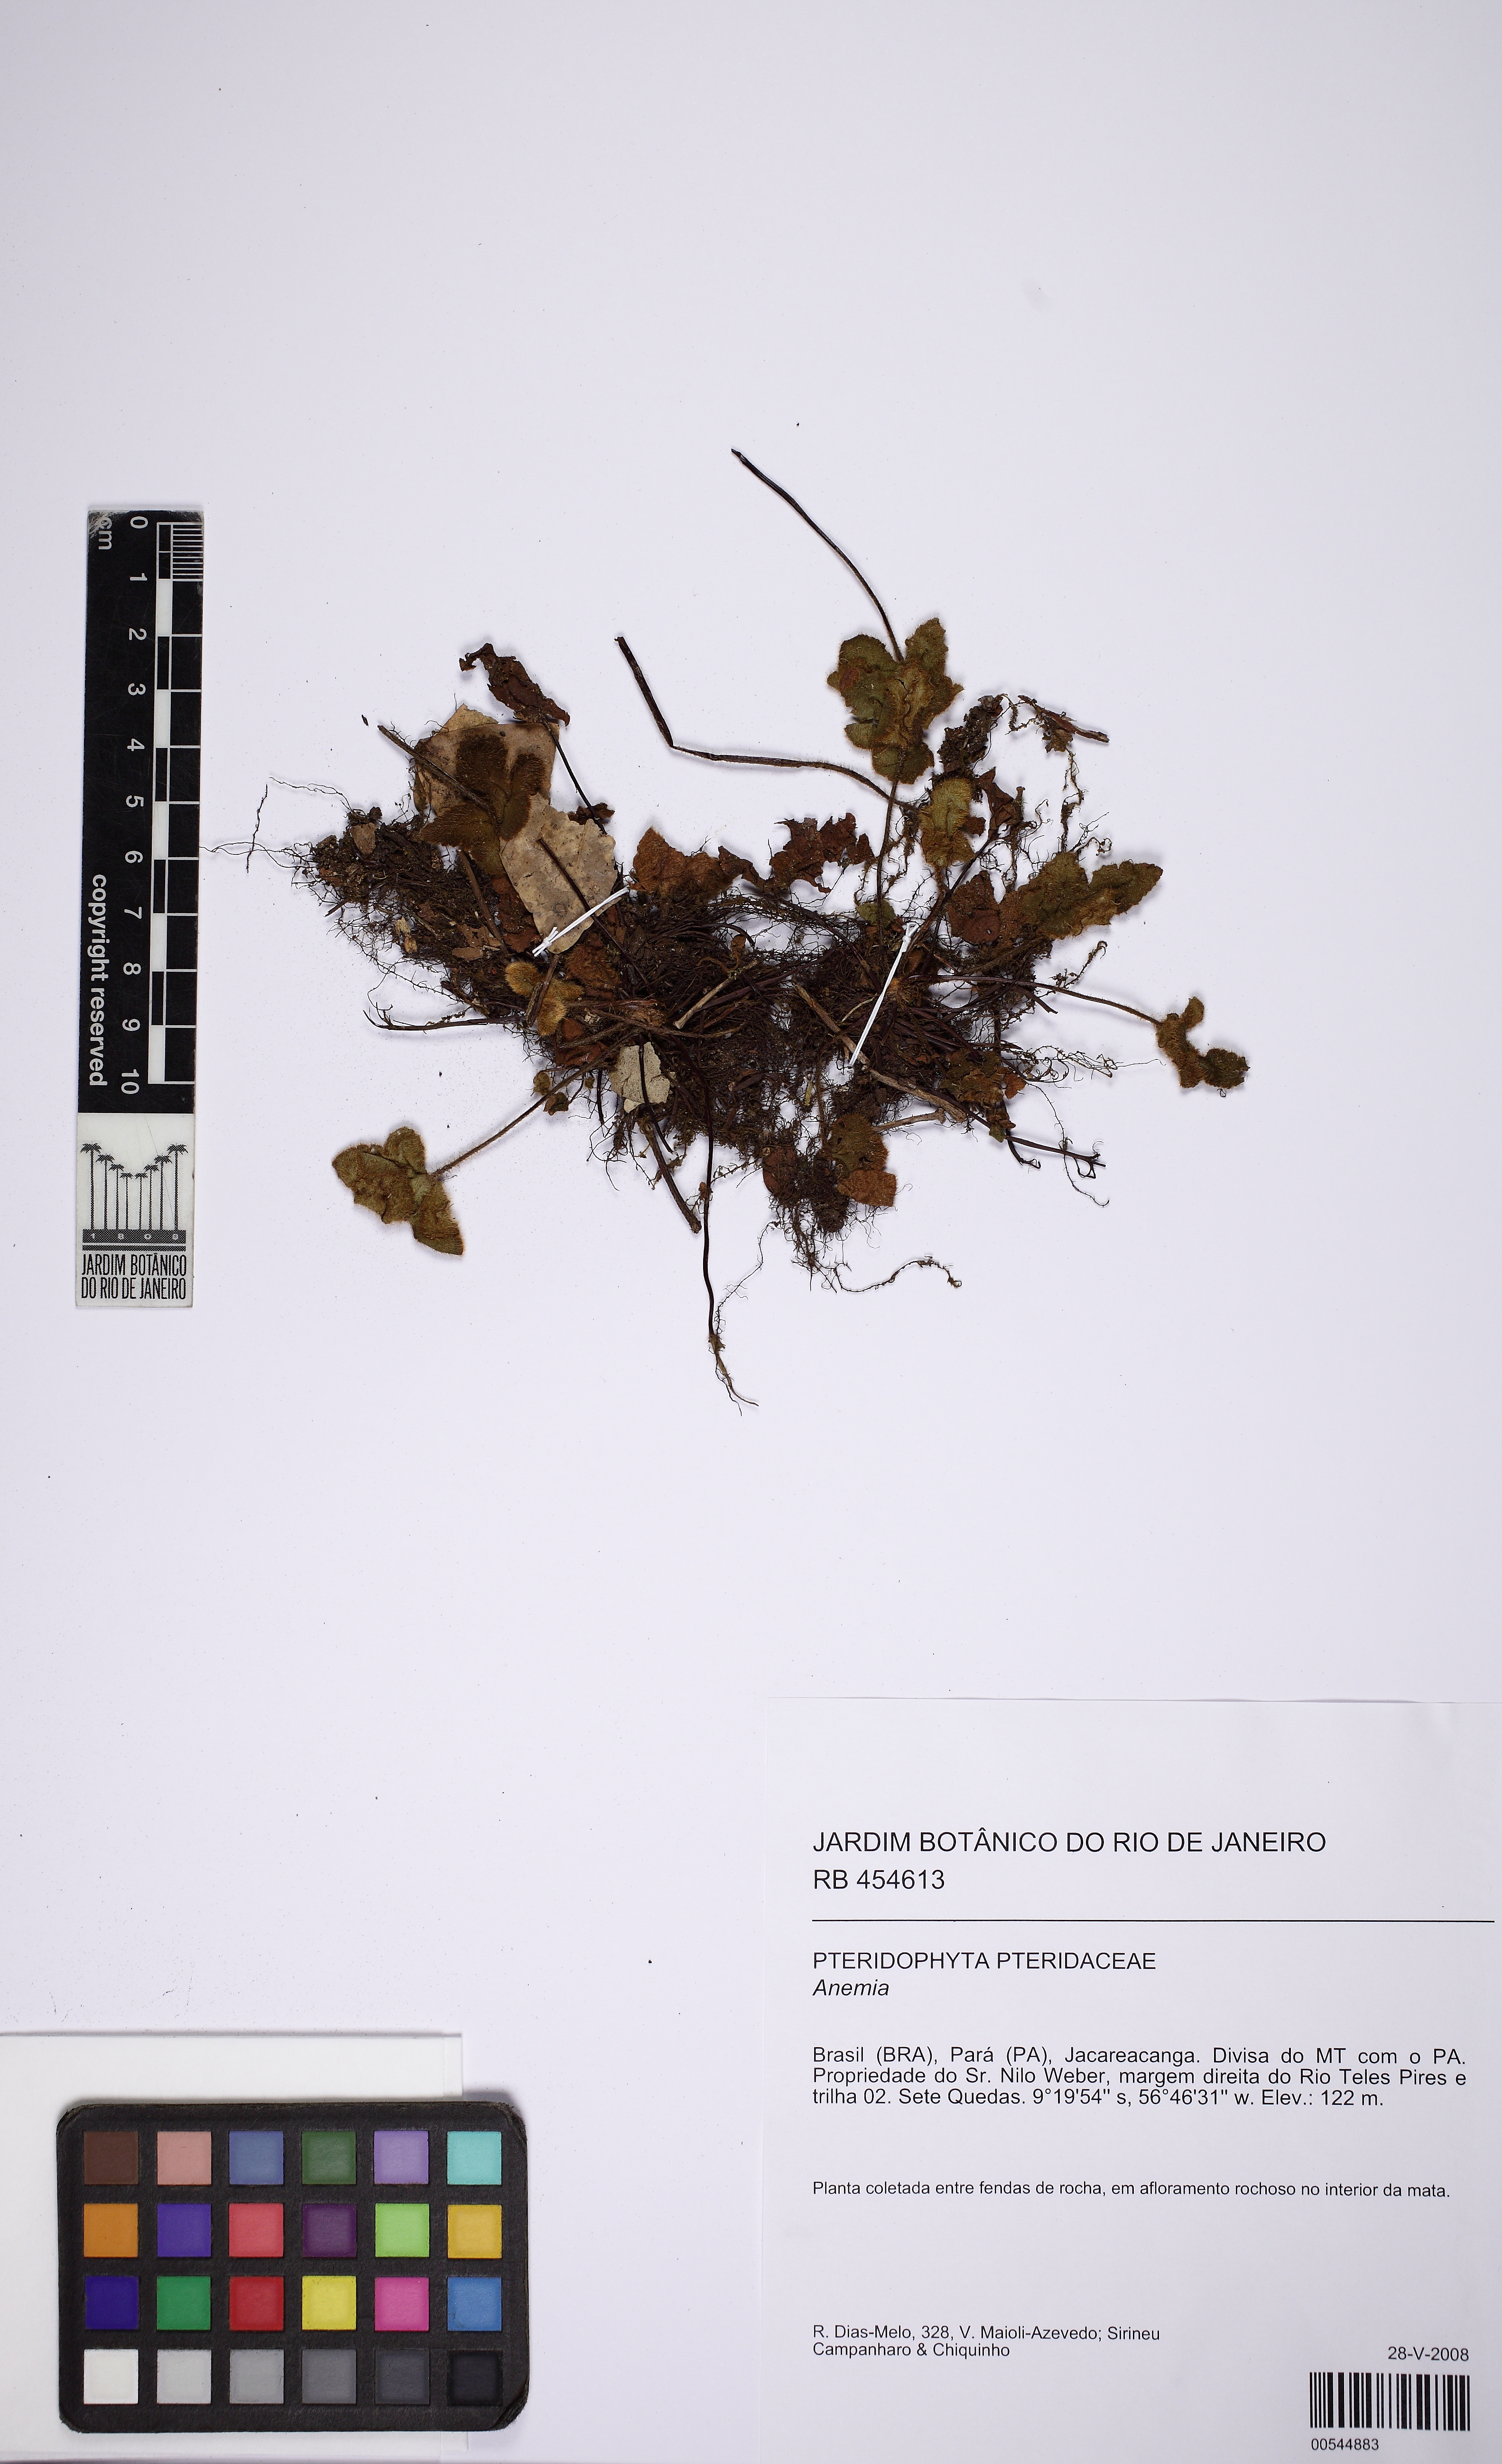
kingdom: Plantae
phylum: Tracheophyta
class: Polypodiopsida
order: Polypodiales
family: Pteridaceae
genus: Hemionitis
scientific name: Hemionitis palmata
